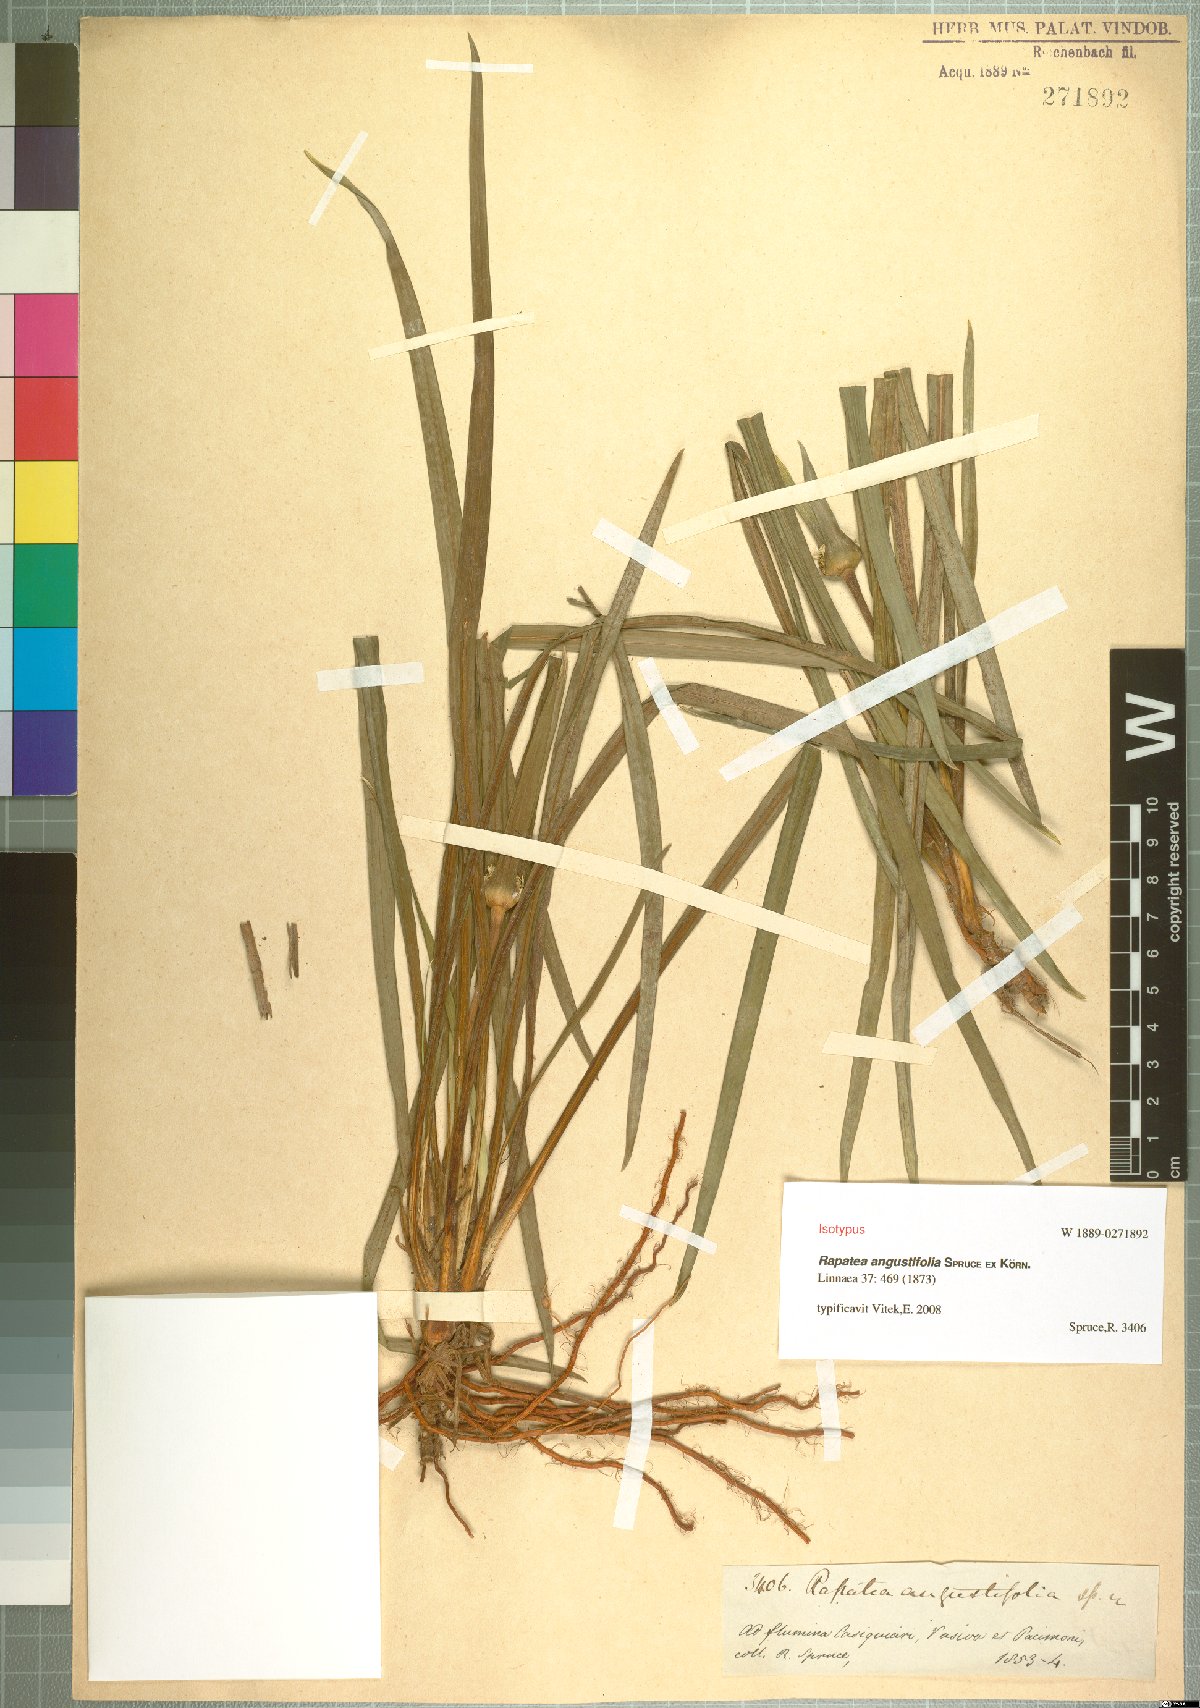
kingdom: Plantae
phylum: Tracheophyta
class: Liliopsida
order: Poales
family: Rapateaceae
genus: Rapatea
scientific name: Rapatea angustifolia
